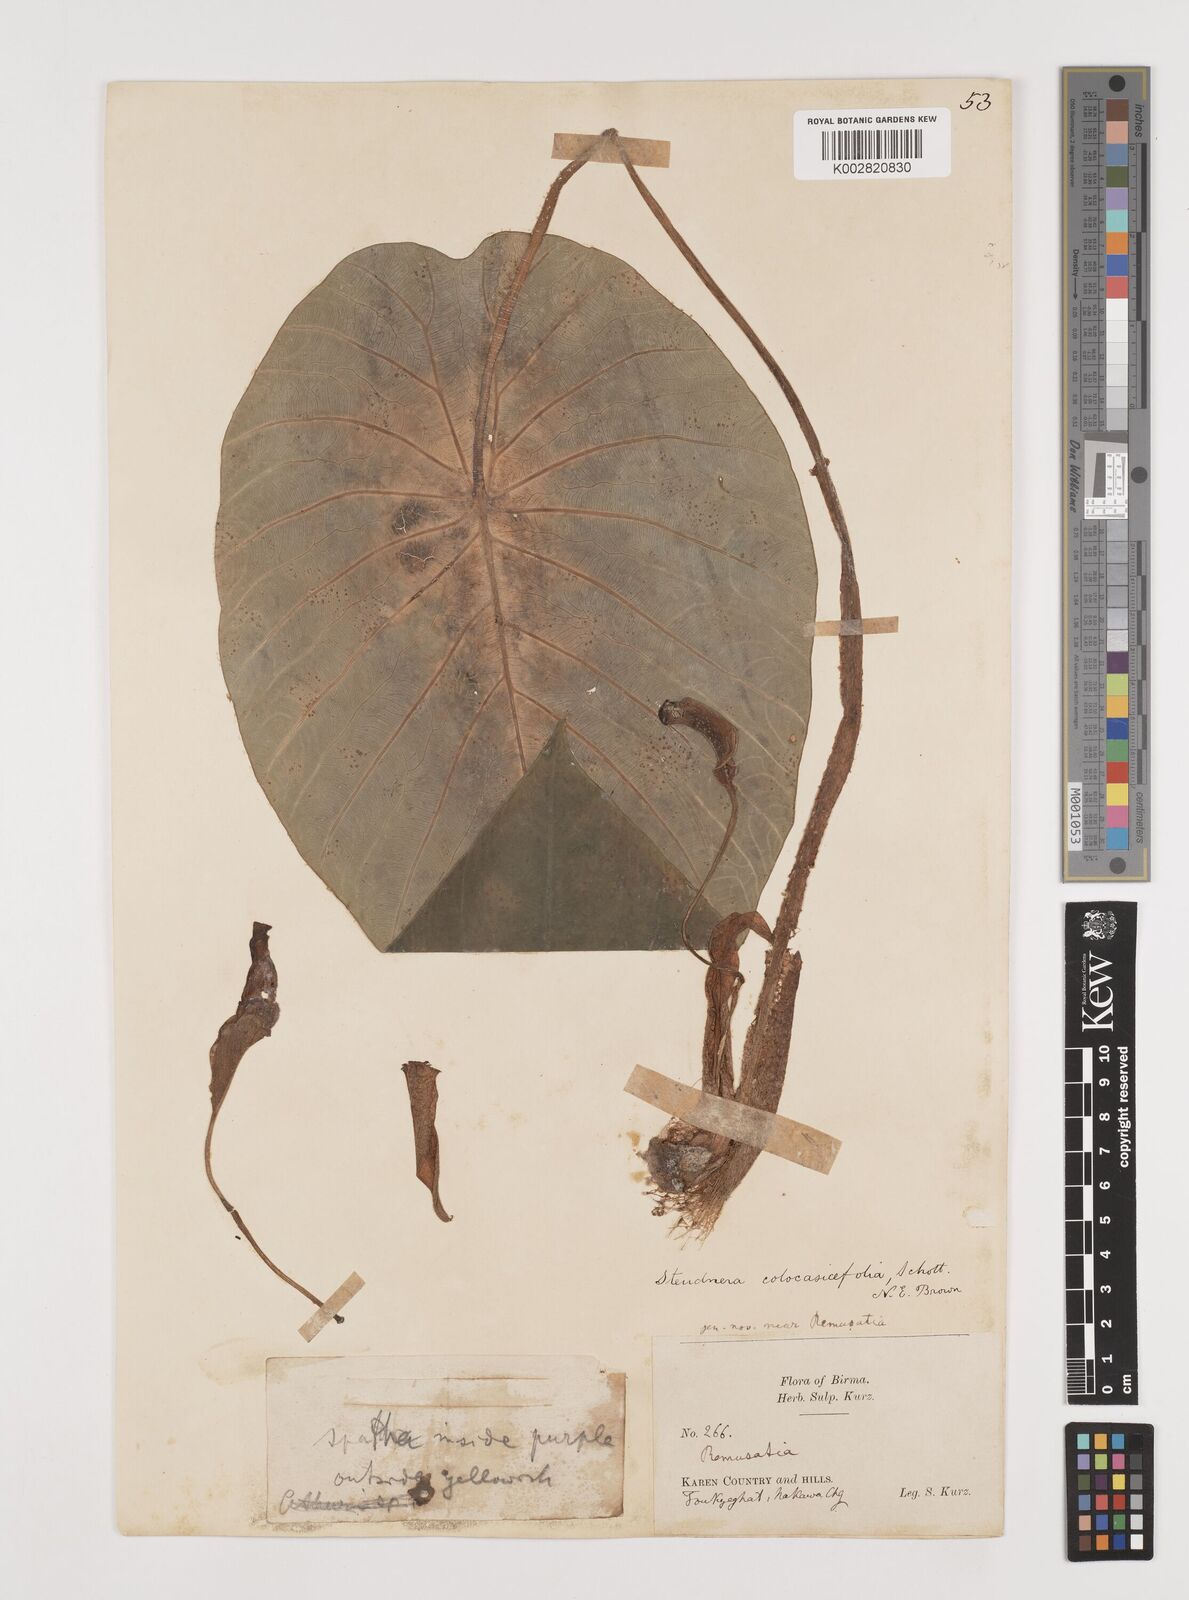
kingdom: Plantae
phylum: Tracheophyta
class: Liliopsida
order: Alismatales
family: Araceae
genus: Steudnera
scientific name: Steudnera colocasiifolia
